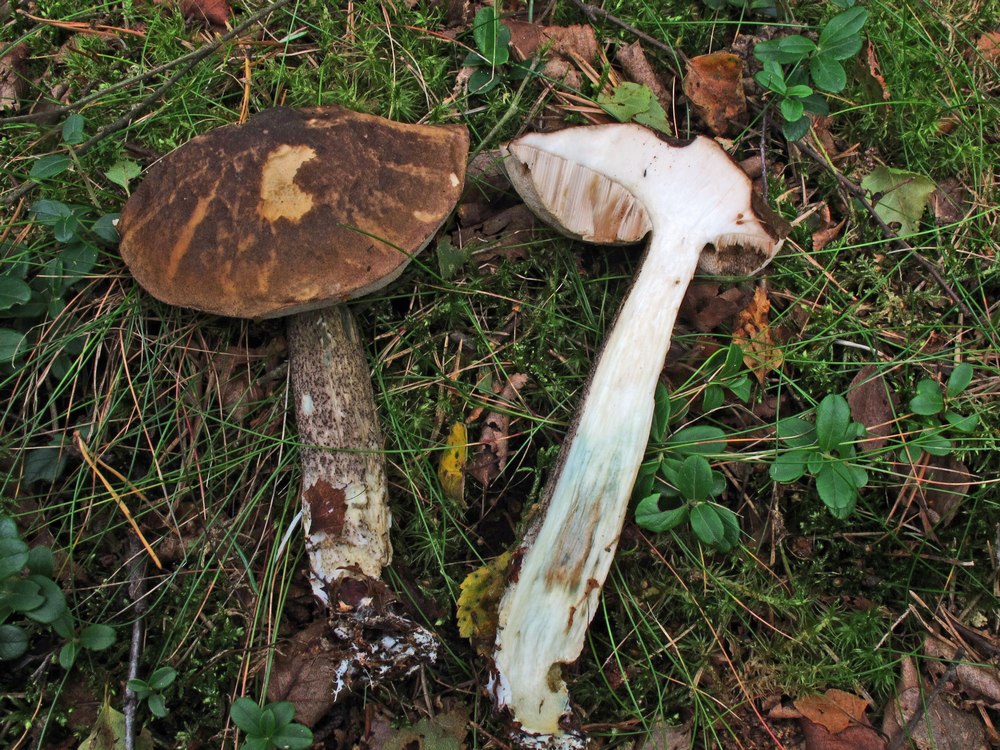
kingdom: Fungi
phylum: Basidiomycota
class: Agaricomycetes
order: Boletales
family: Boletaceae
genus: Leccinum
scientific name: Leccinum variicolor
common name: flammet skælrørhat
